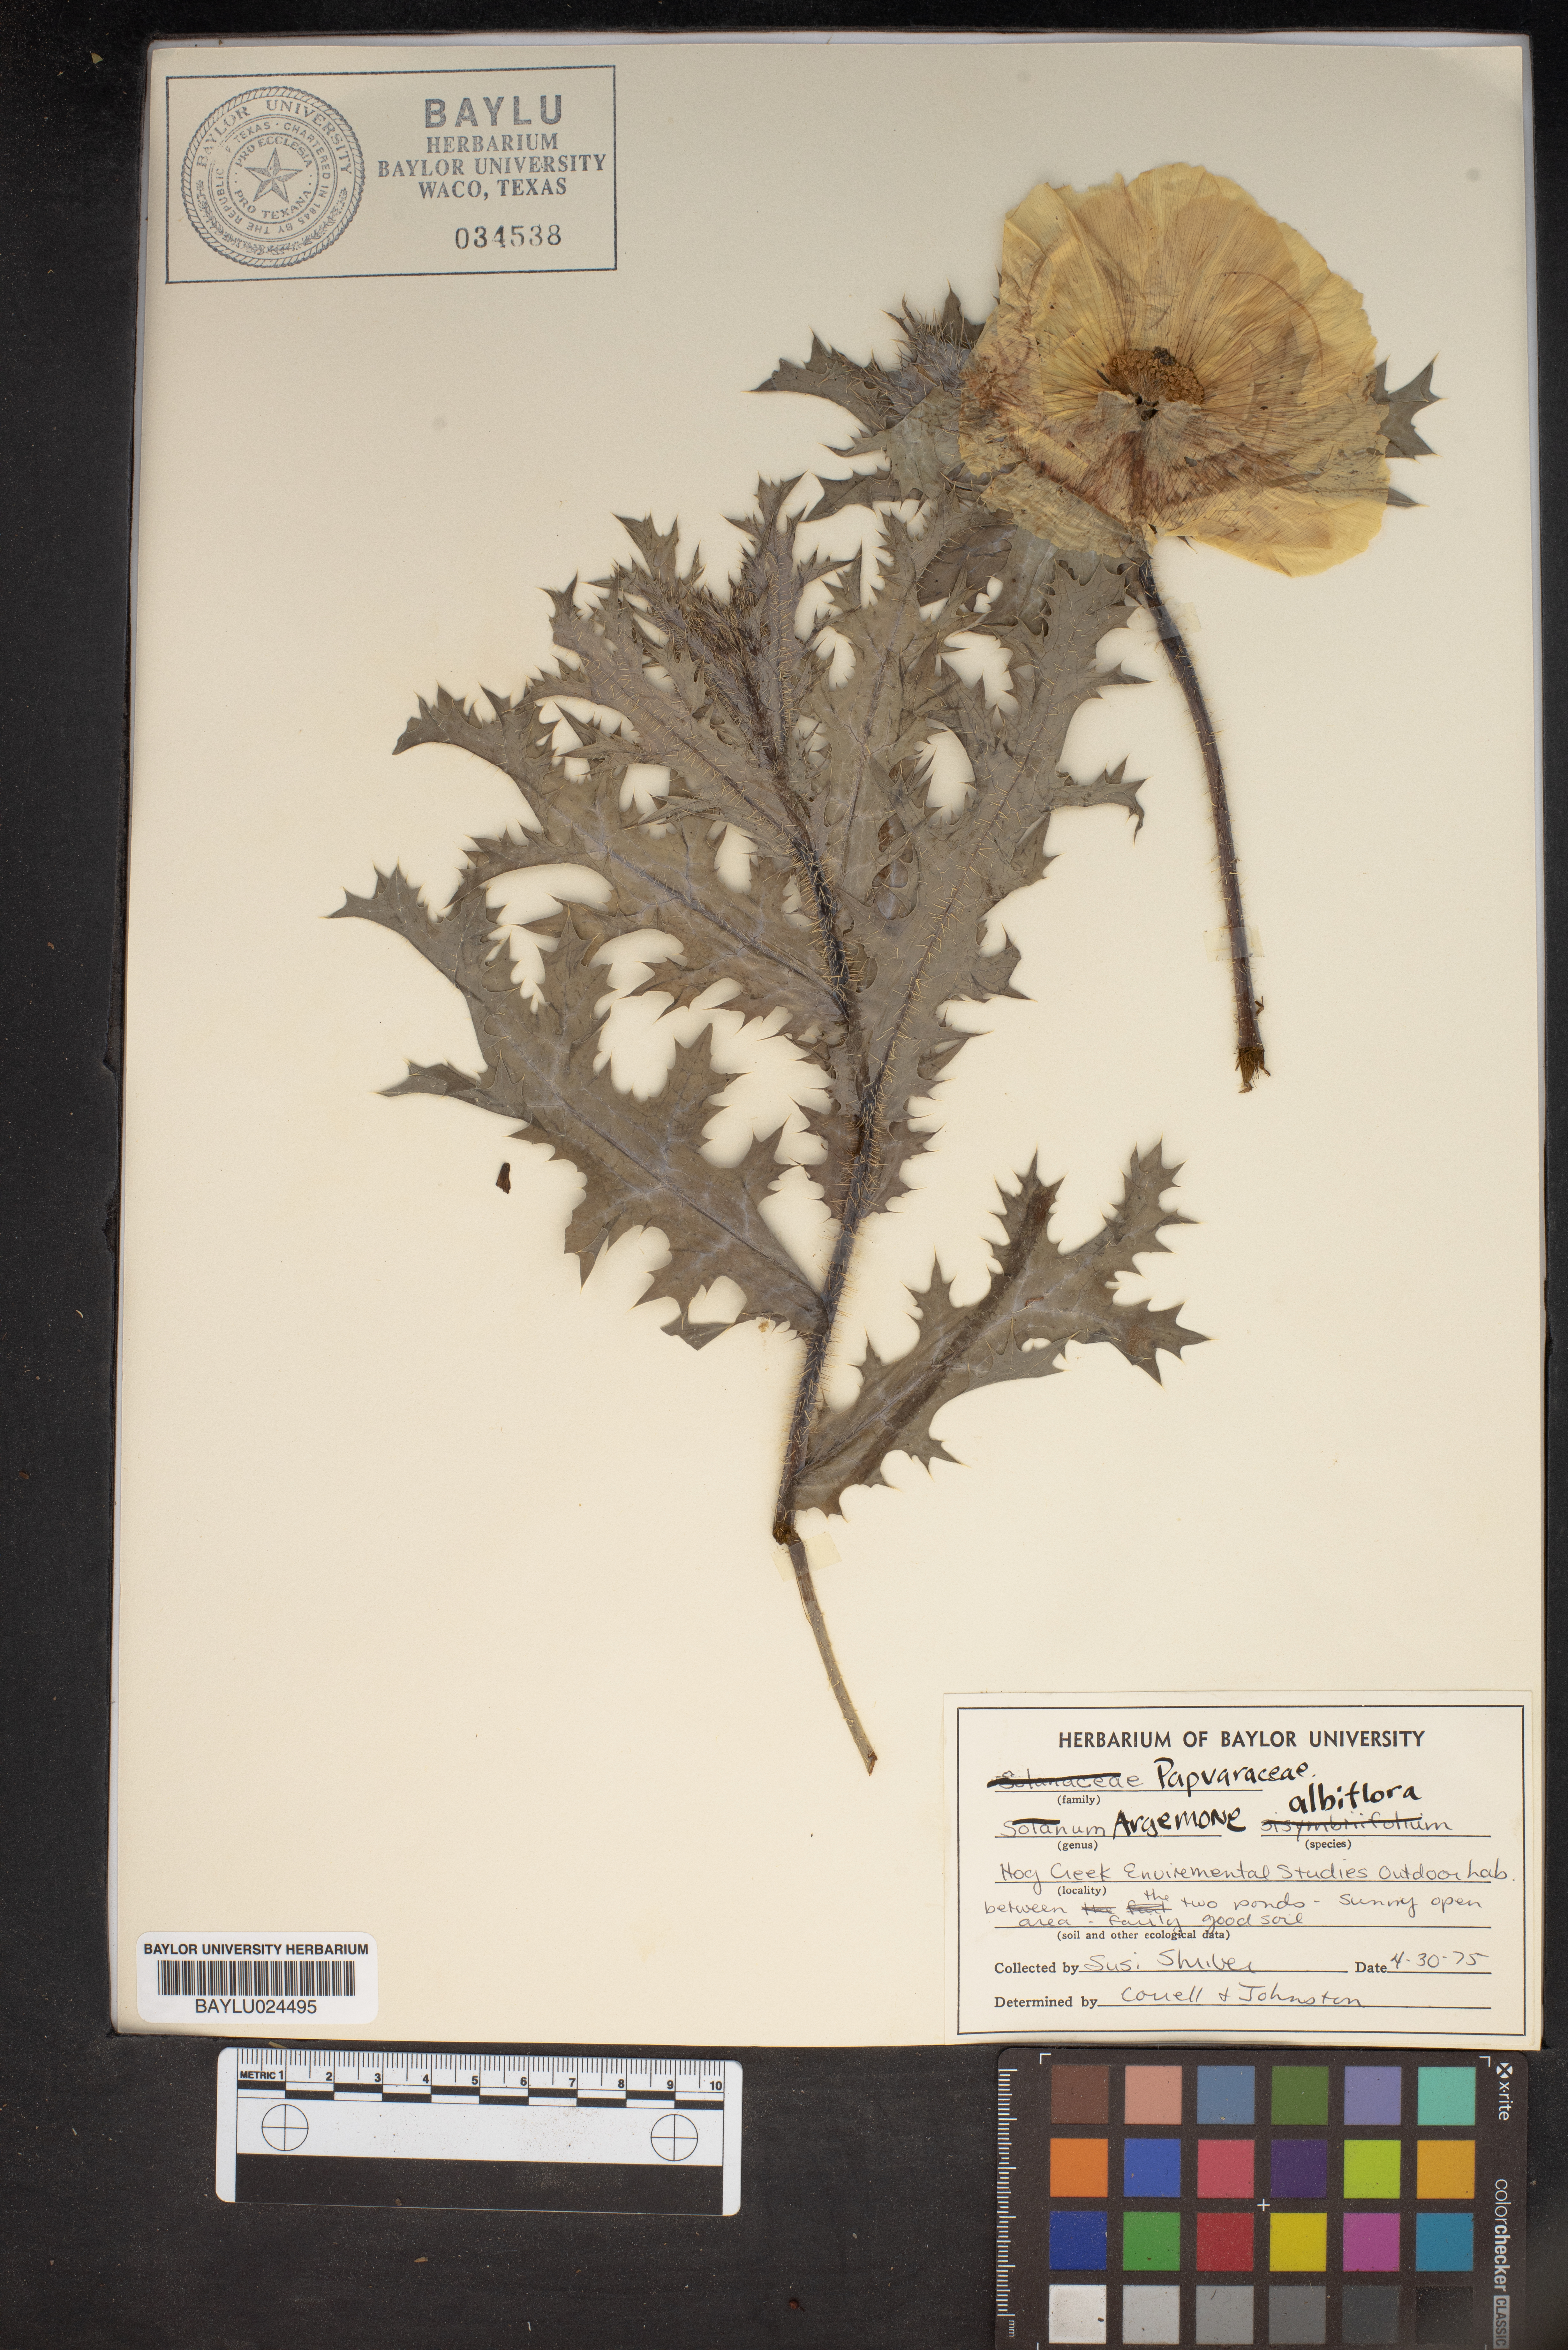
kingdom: Plantae
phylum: Tracheophyta
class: Magnoliopsida
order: Ranunculales
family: Papaveraceae
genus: Argemone
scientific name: Argemone albiflora
